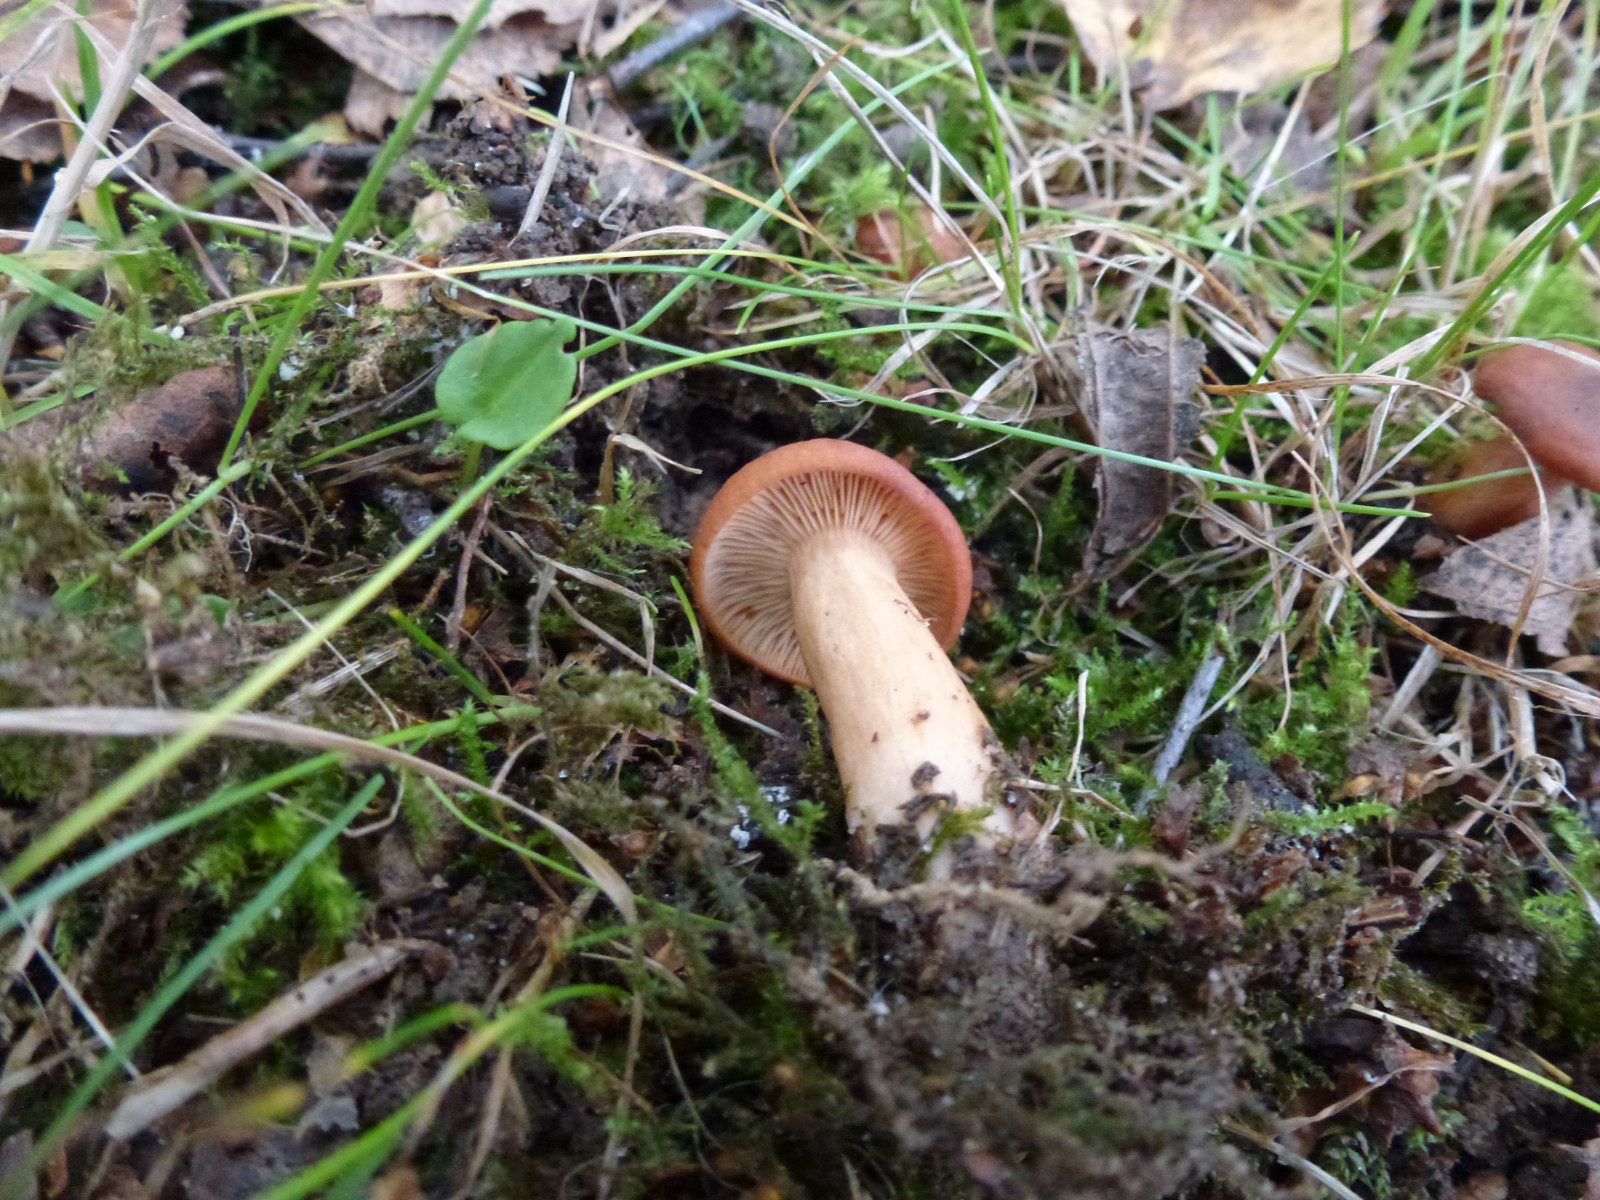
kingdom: Fungi
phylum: Basidiomycota
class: Agaricomycetes
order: Russulales
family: Russulaceae
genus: Lactarius
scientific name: Lactarius
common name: mælkehat
